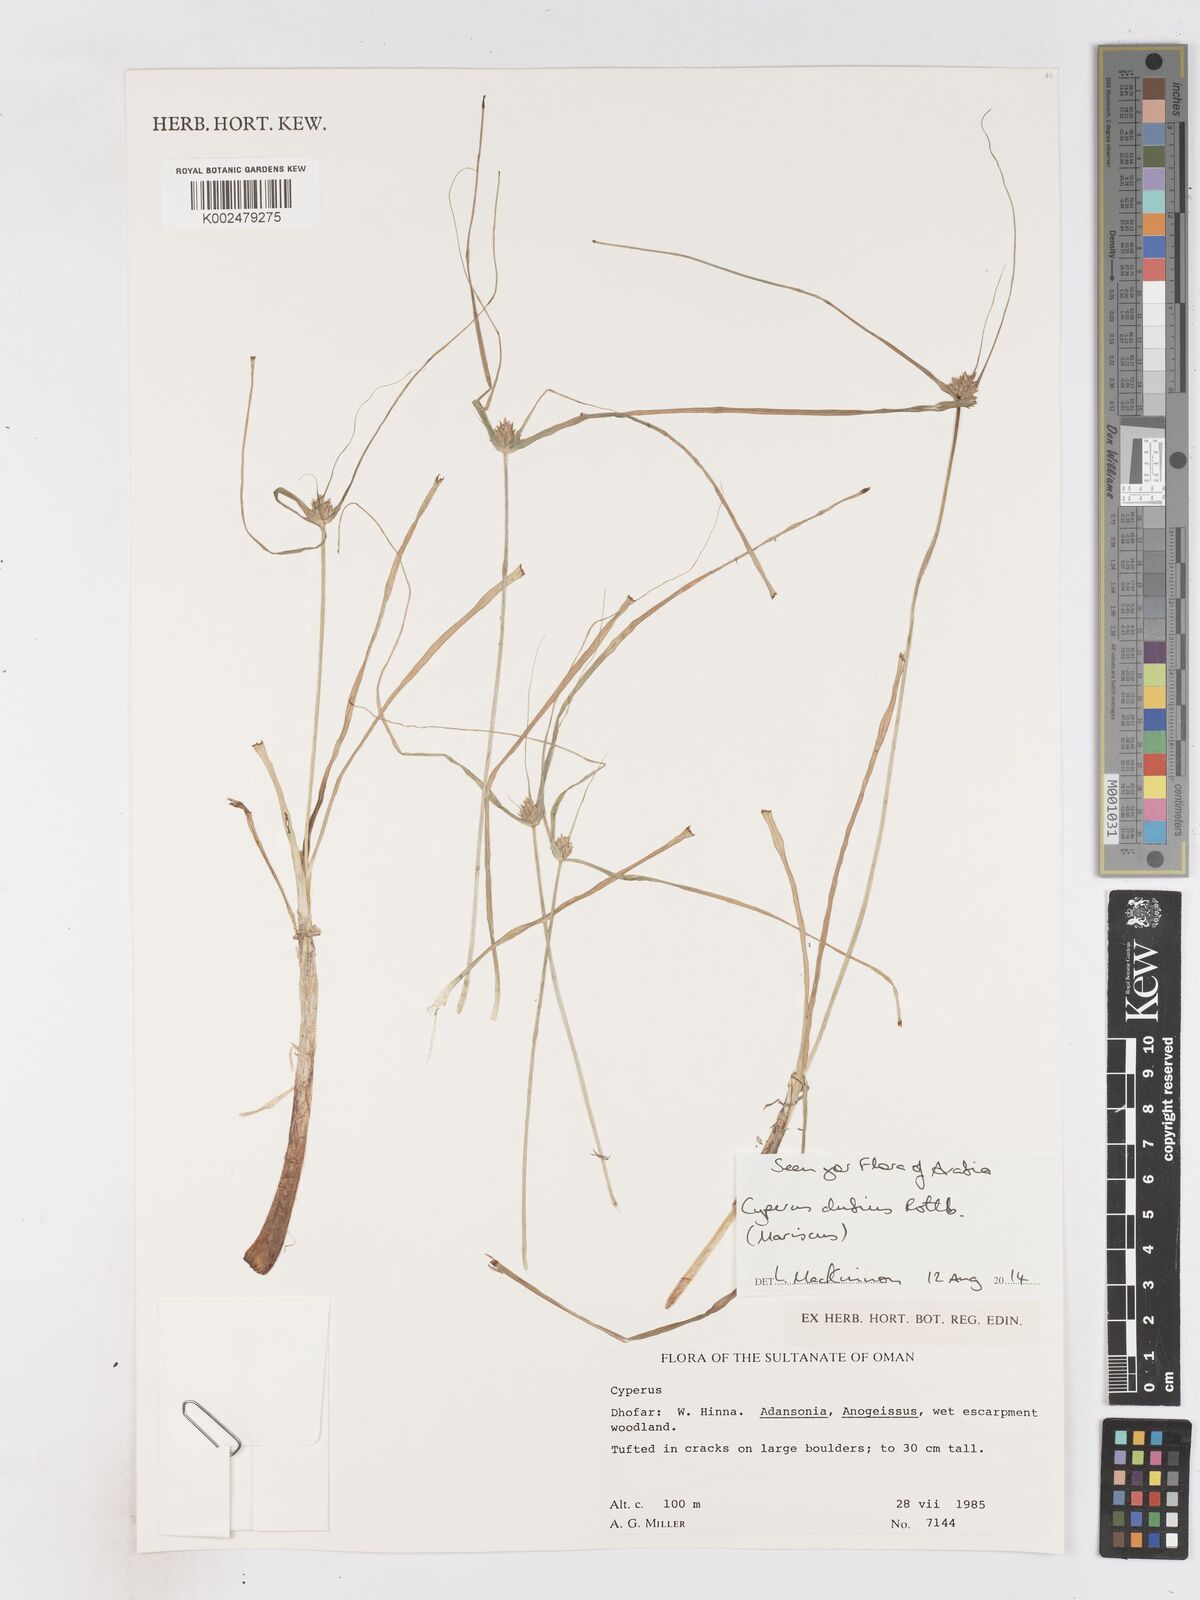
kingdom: Plantae
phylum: Tracheophyta
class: Liliopsida
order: Poales
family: Cyperaceae
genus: Cyperus
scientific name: Cyperus dubius
